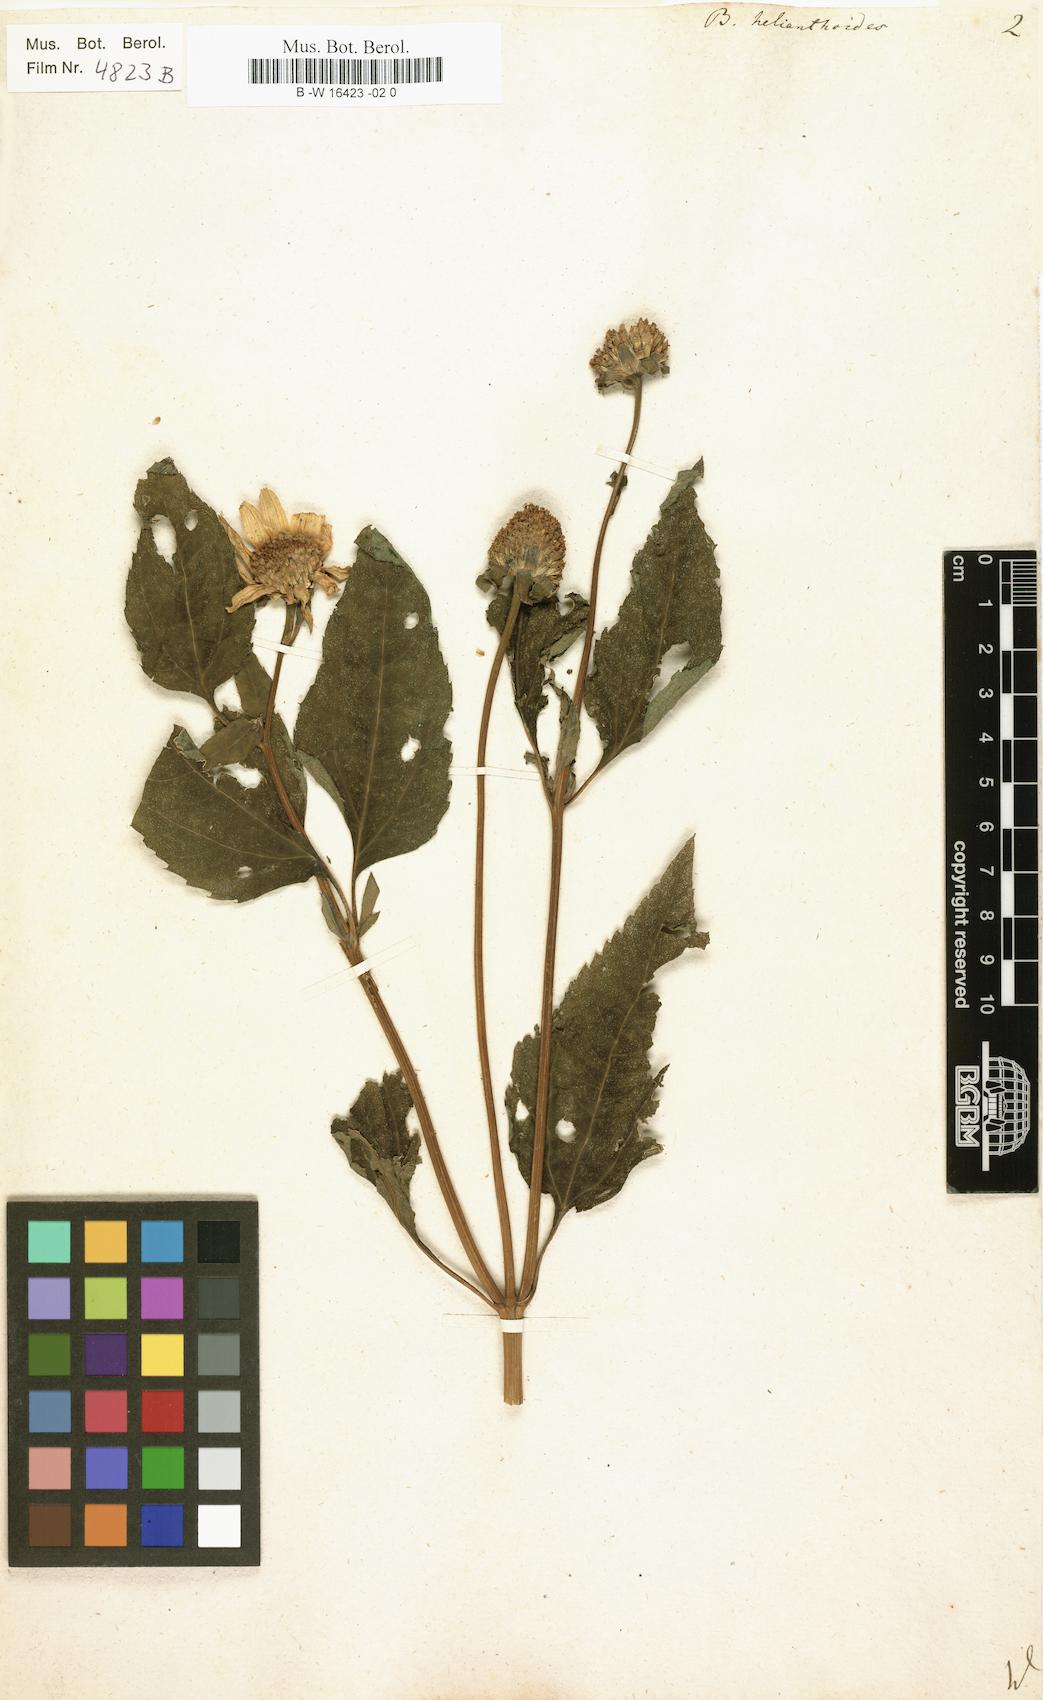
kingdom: Plantae
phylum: Tracheophyta
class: Magnoliopsida
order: Asterales
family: Asteraceae
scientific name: Asteraceae
